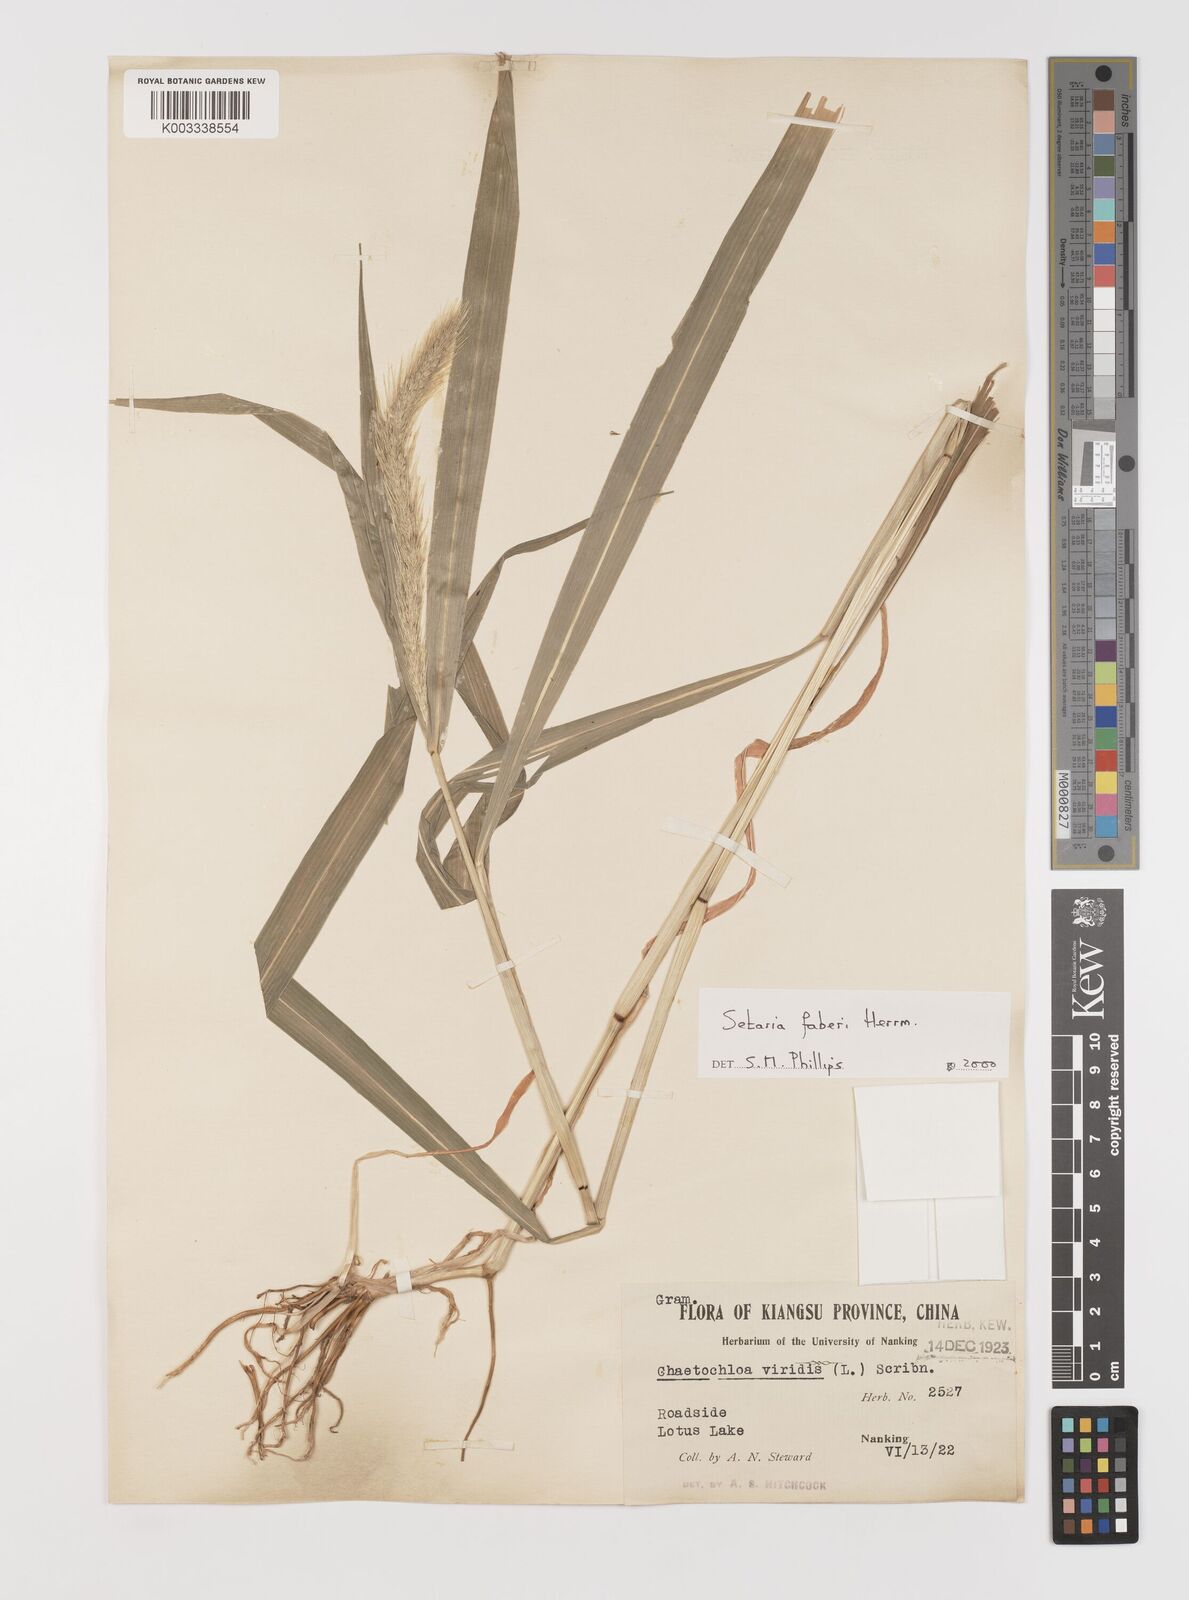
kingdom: Plantae
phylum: Tracheophyta
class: Liliopsida
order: Poales
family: Poaceae
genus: Setaria
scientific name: Setaria faberi
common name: Nodding bristle-grass
